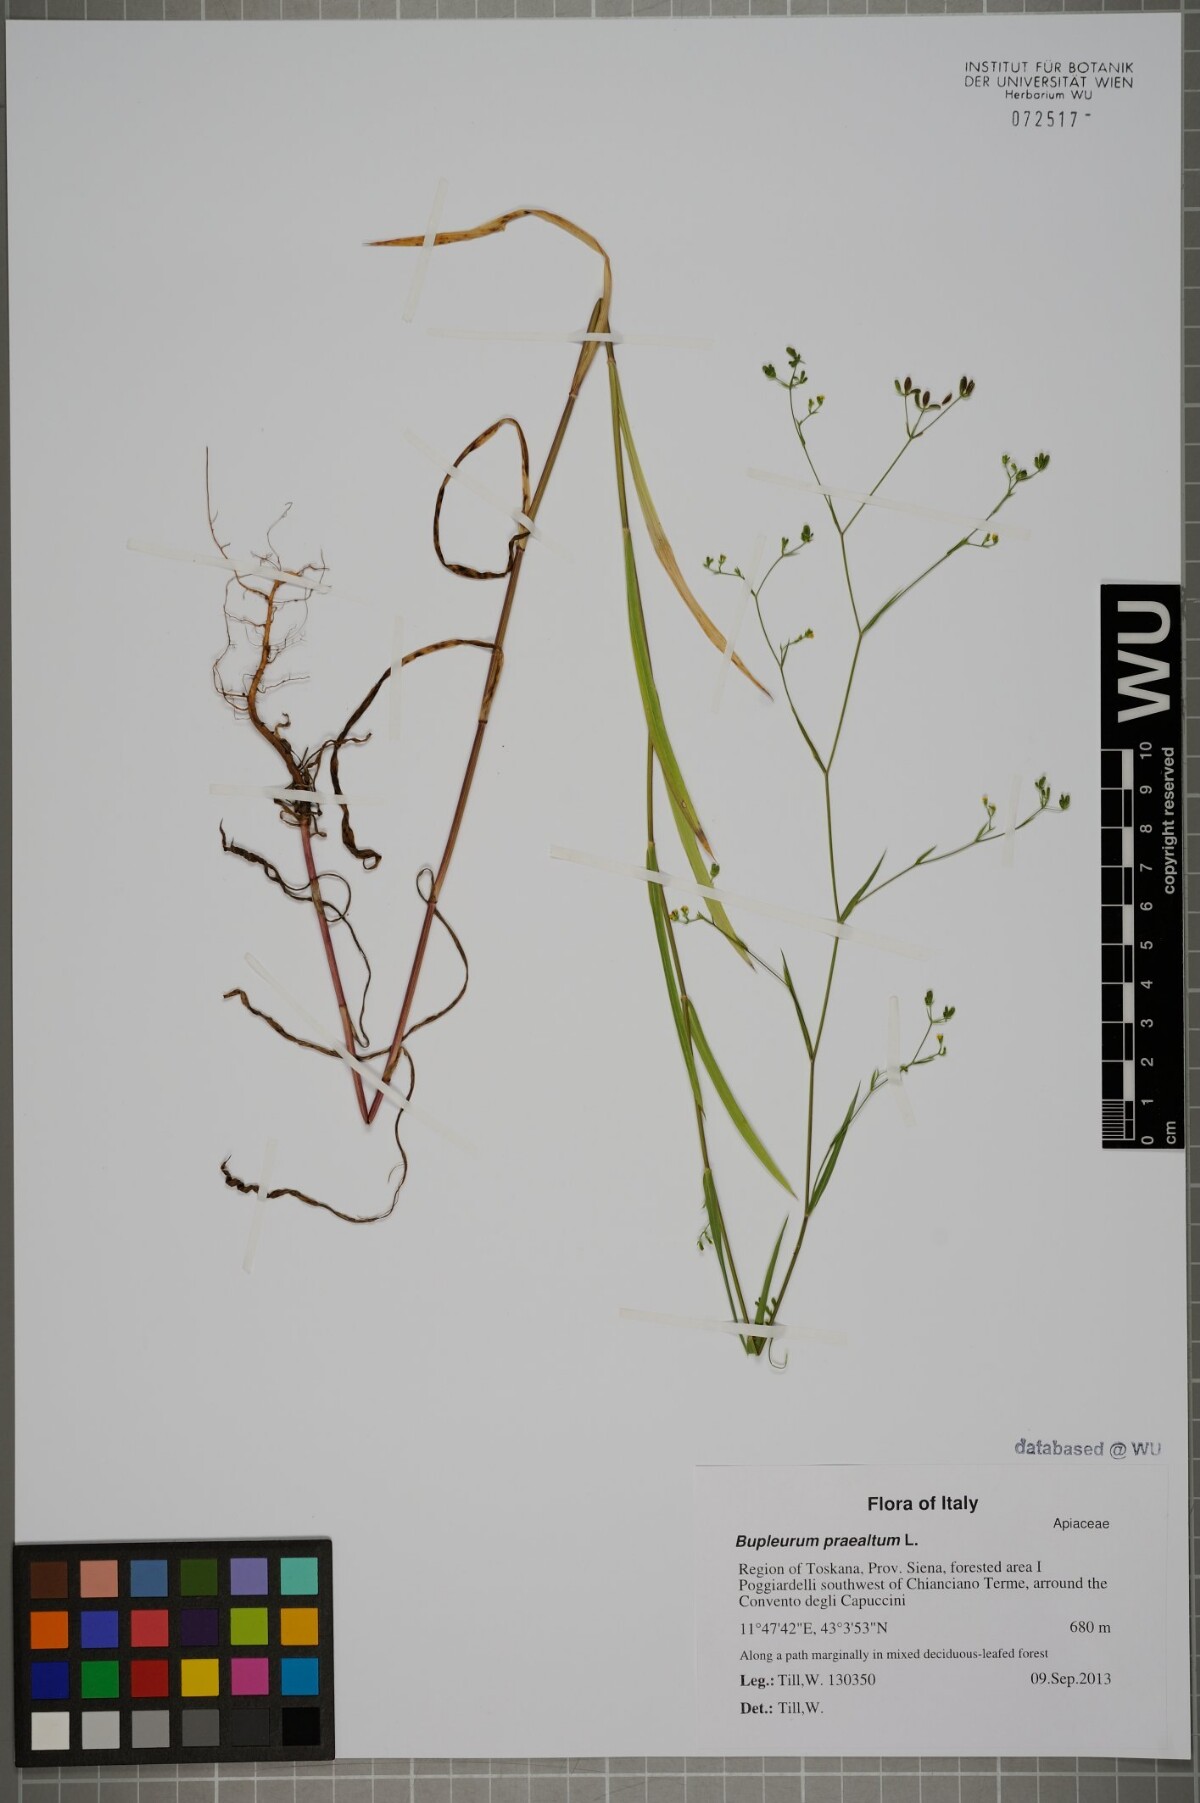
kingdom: Plantae
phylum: Tracheophyta
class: Magnoliopsida
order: Apiales
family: Apiaceae
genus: Bupleurum
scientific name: Bupleurum praealtum
